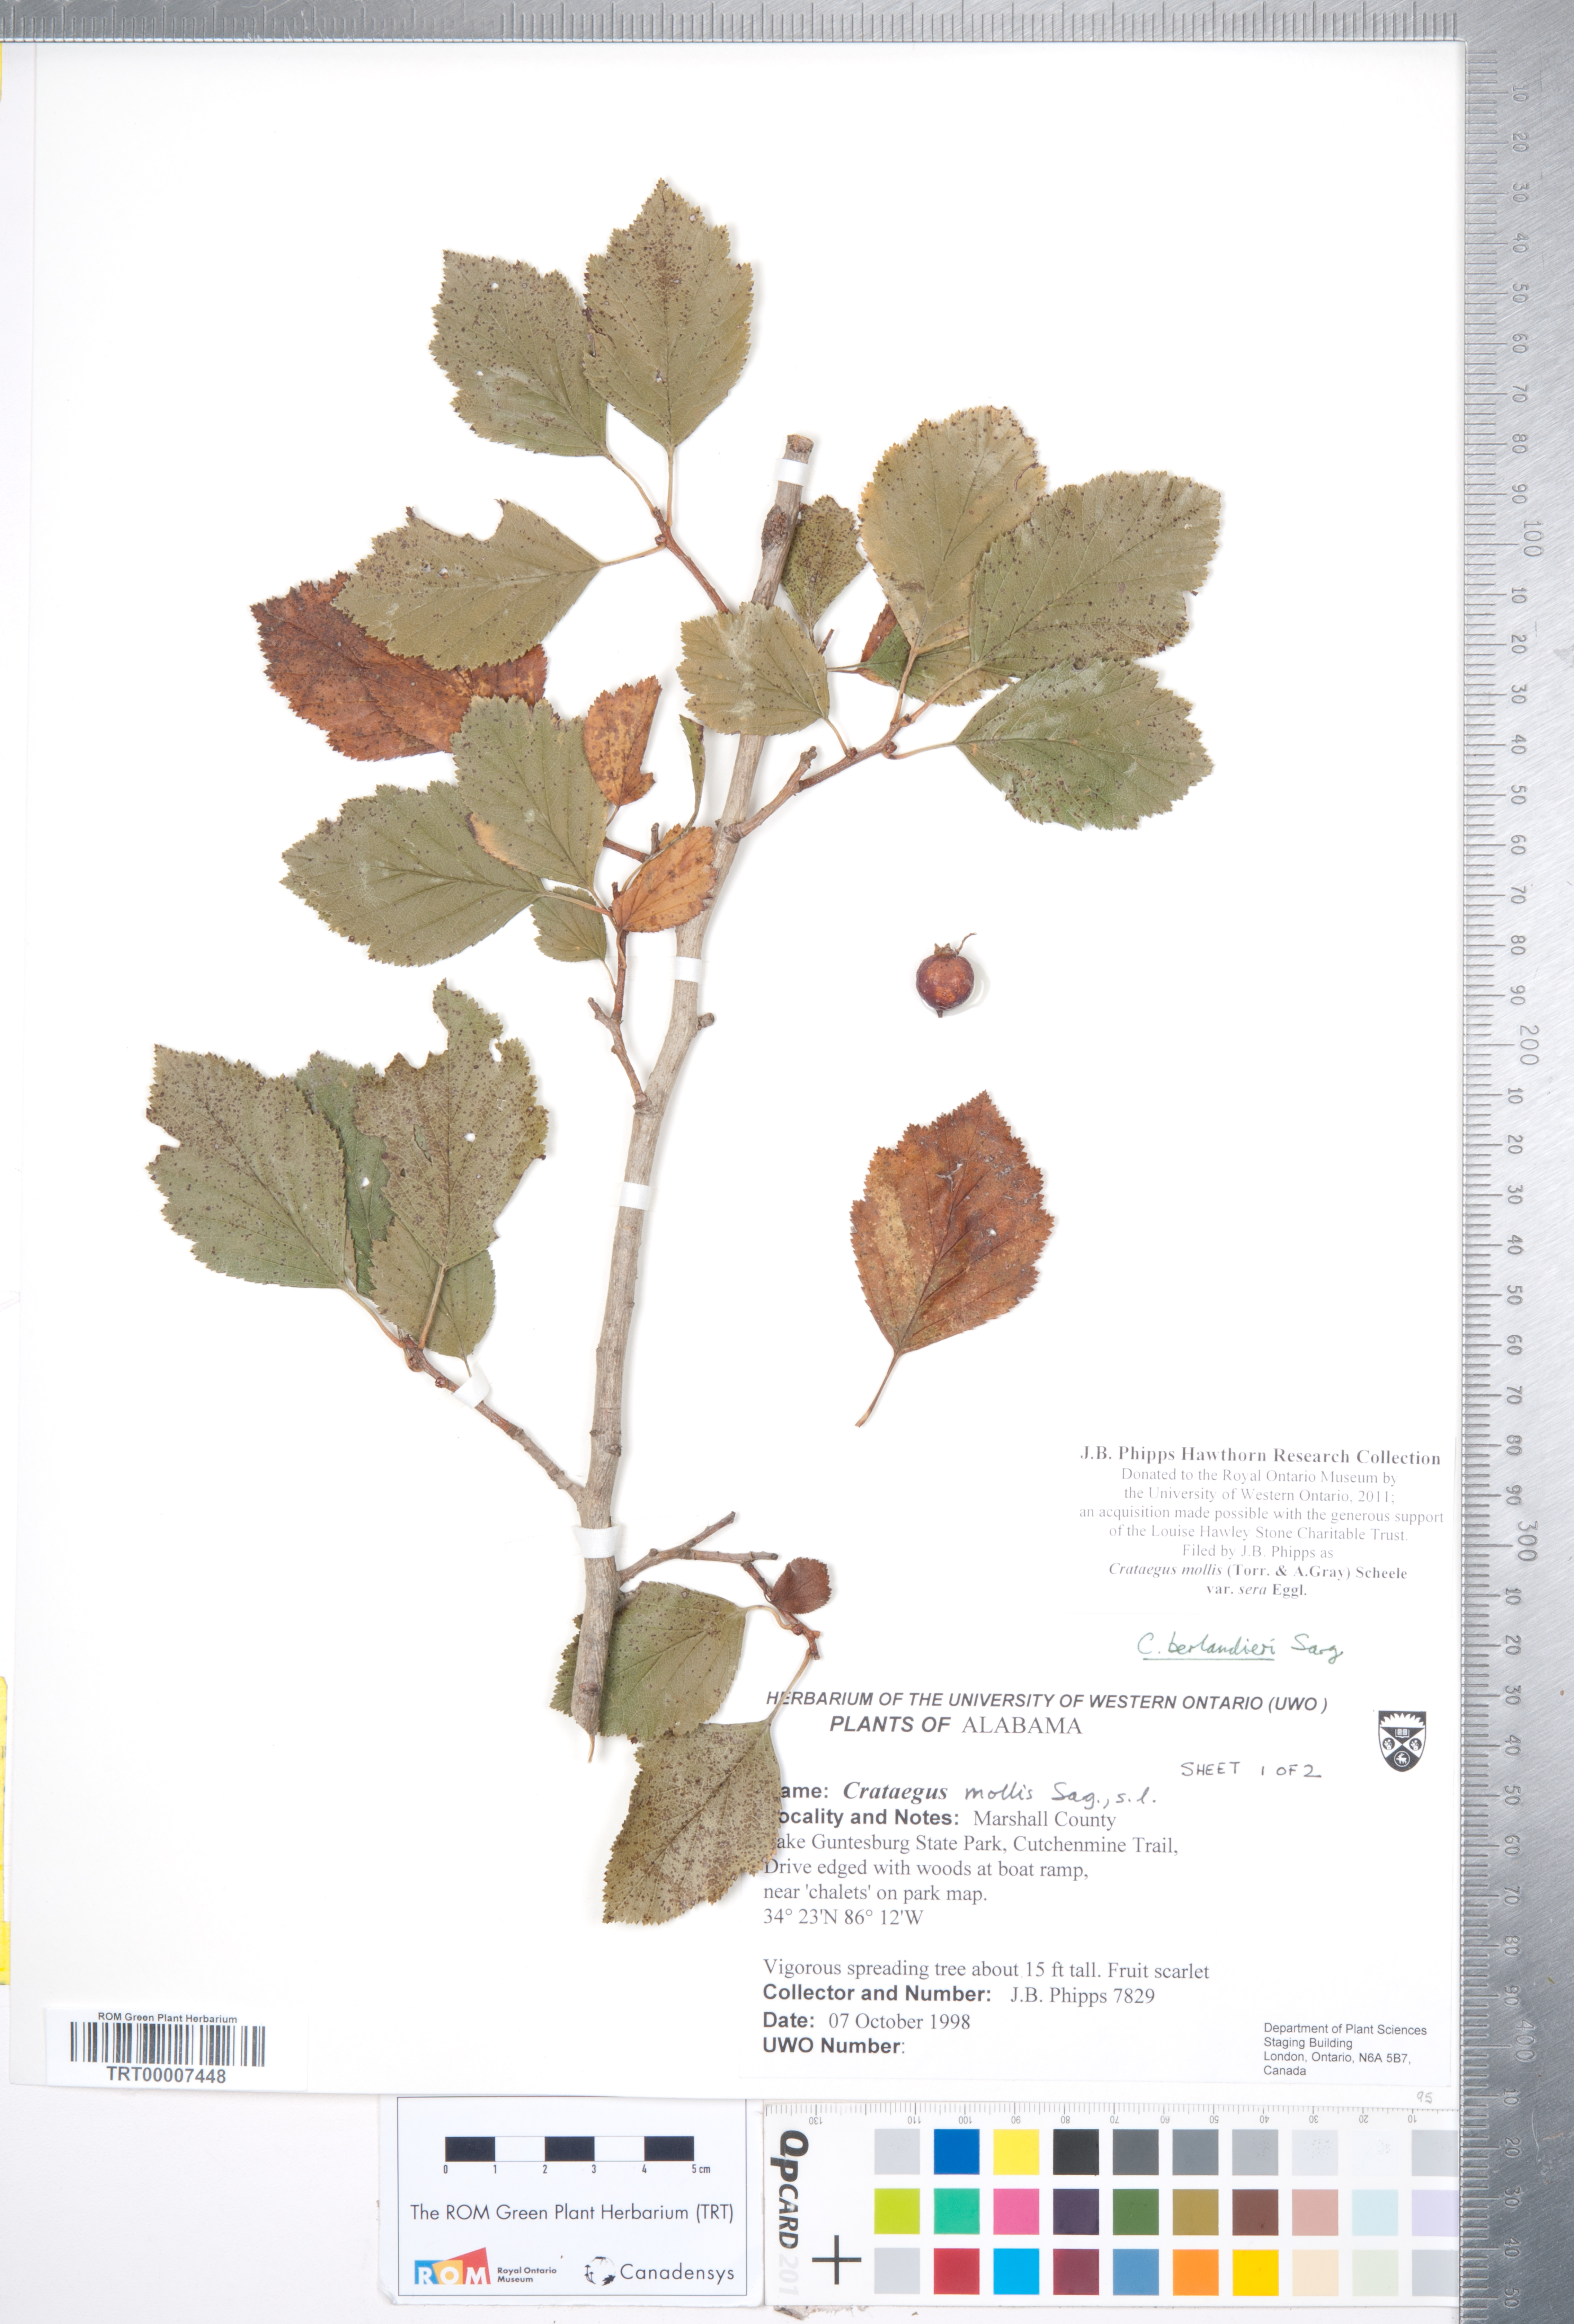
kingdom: Plantae
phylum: Tracheophyta
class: Magnoliopsida
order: Rosales
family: Rosaceae
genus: Crataegus
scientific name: Crataegus mollis
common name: Downy hawthorn
